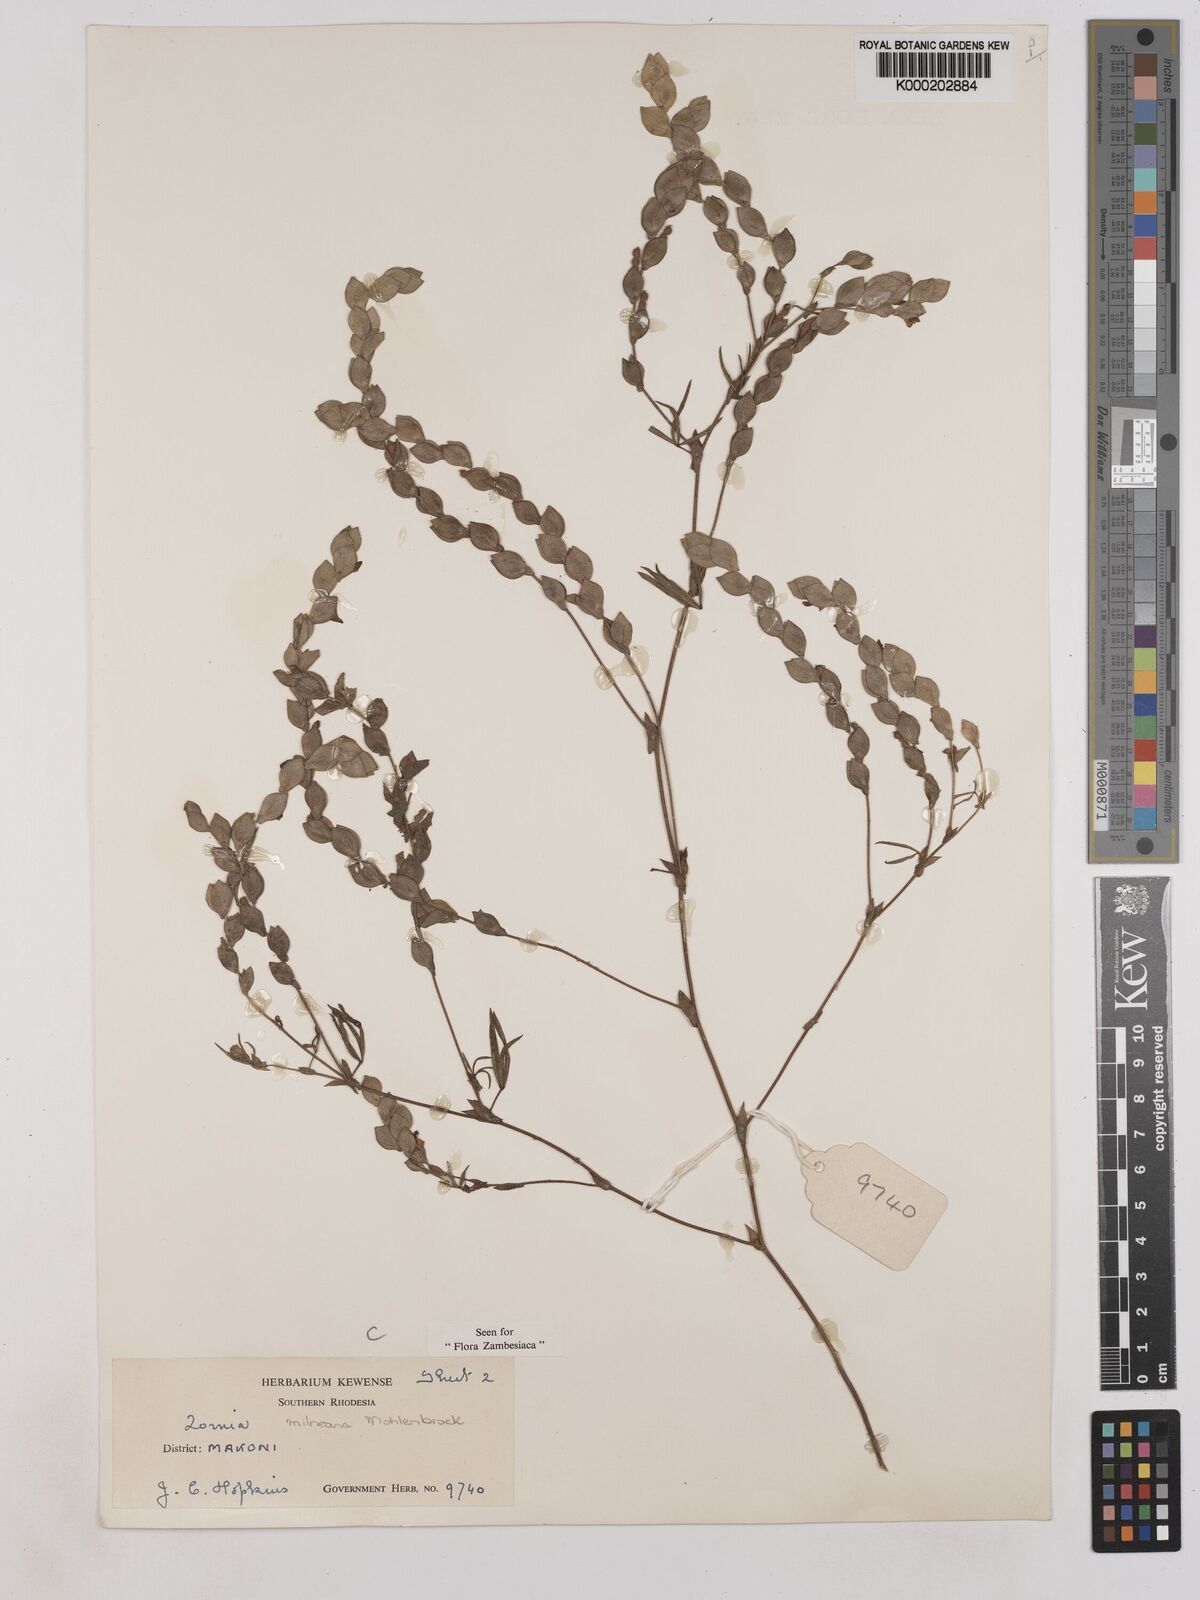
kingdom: Plantae
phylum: Tracheophyta
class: Magnoliopsida
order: Fabales
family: Fabaceae
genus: Zornia
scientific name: Zornia milneana
